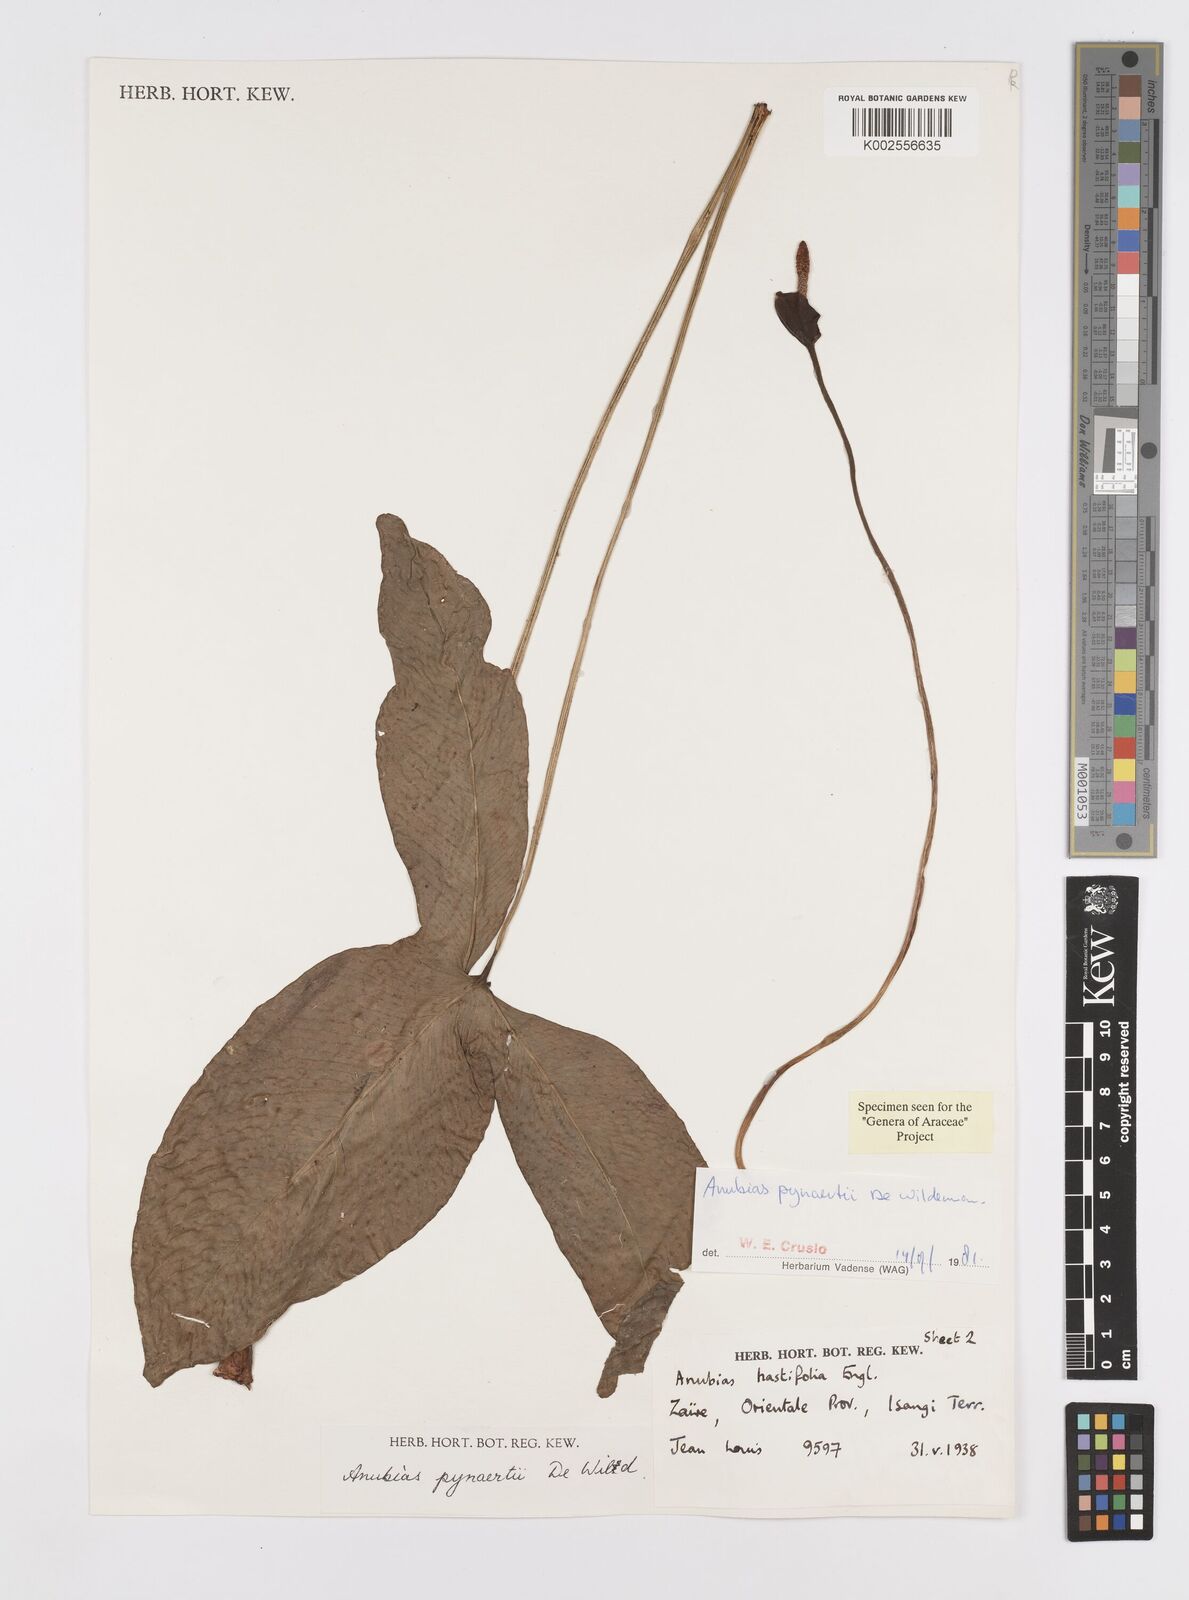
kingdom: Plantae
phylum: Tracheophyta
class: Liliopsida
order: Alismatales
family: Araceae
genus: Anubias
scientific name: Anubias pynaertii
